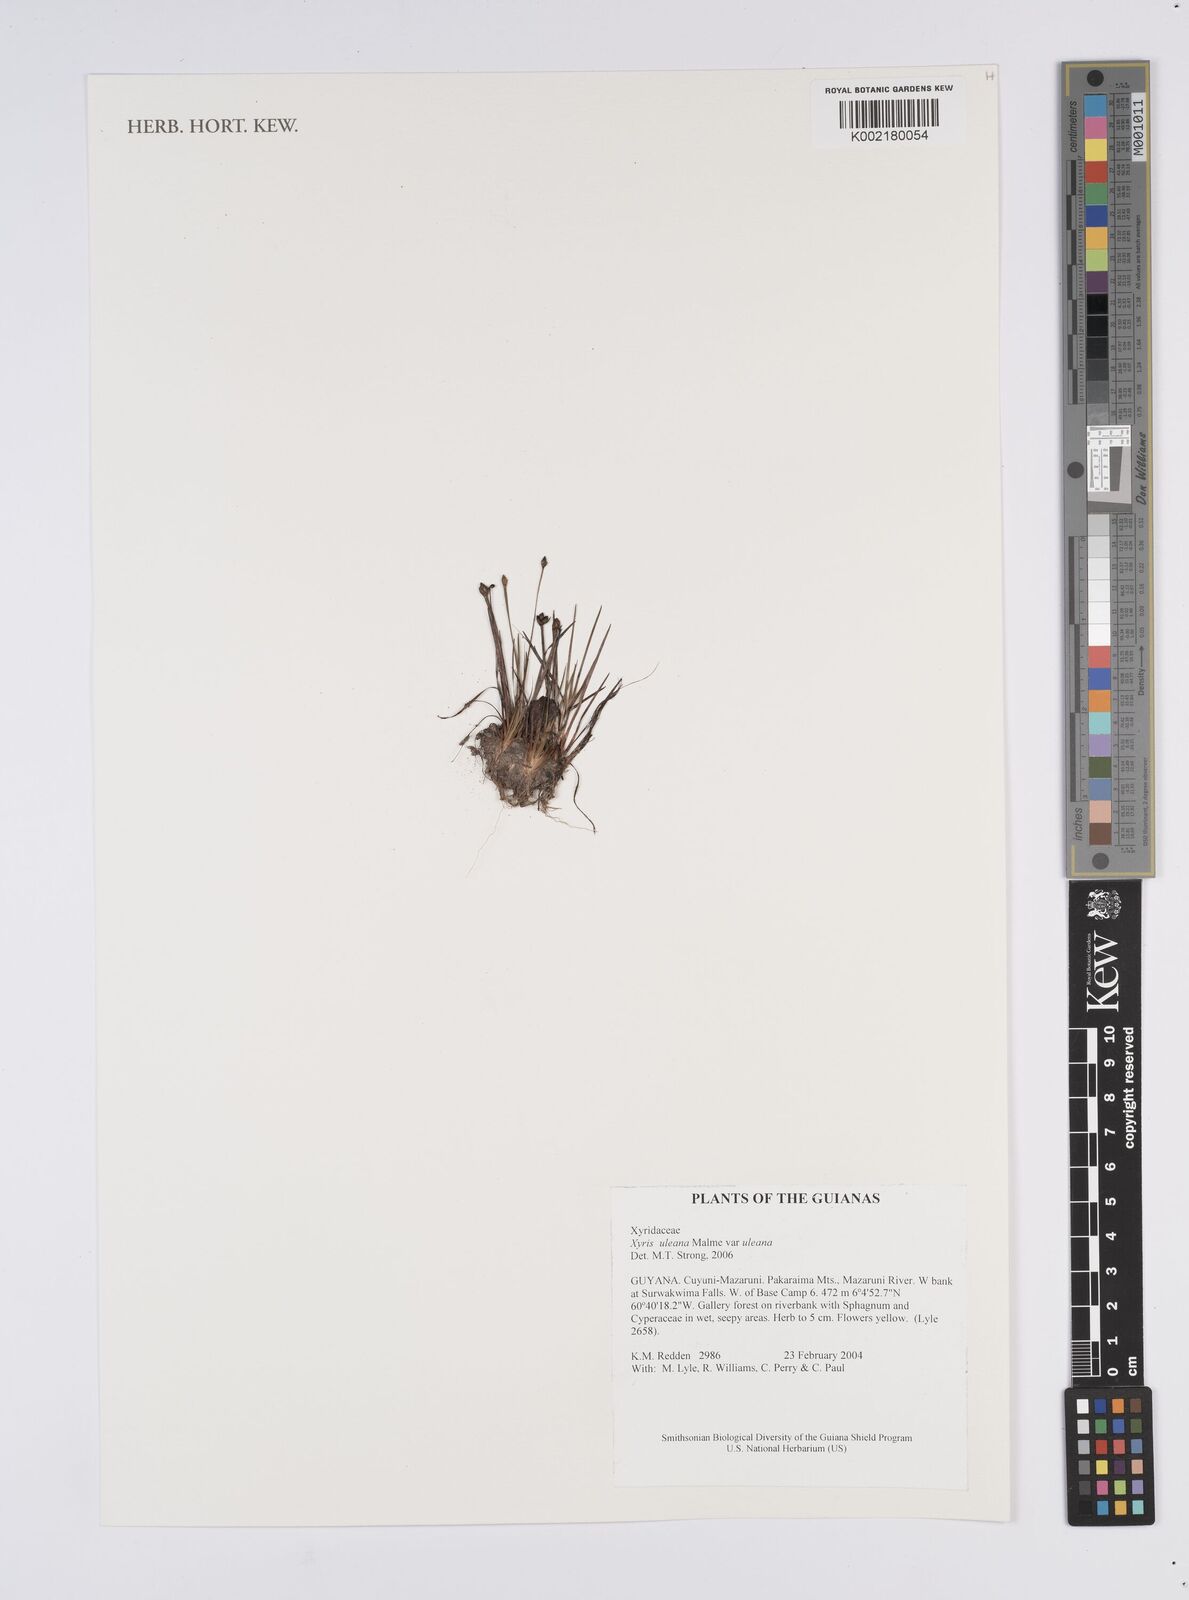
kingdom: Plantae
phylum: Tracheophyta
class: Liliopsida
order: Poales
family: Xyridaceae
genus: Xyris
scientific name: Xyris uleana
